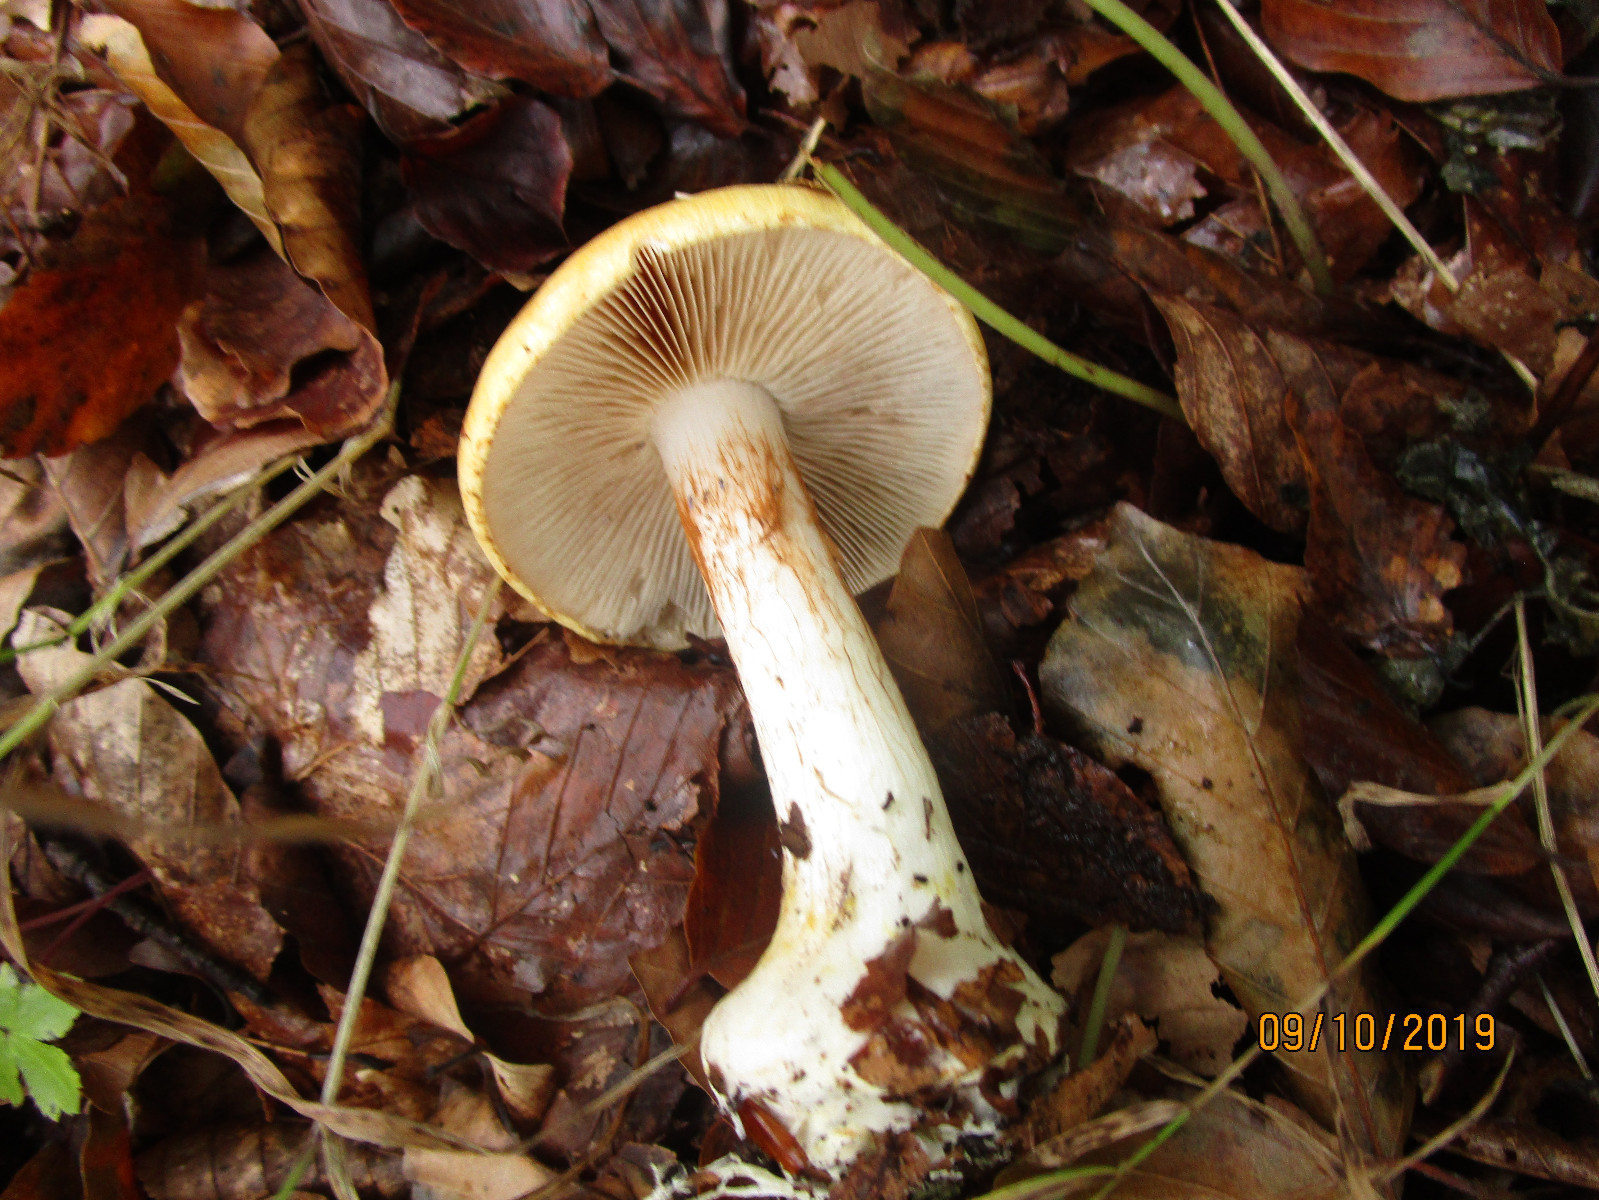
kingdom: Fungi
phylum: Basidiomycota
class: Agaricomycetes
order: Agaricales
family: Cortinariaceae
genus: Calonarius
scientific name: Calonarius humolens
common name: radise-slørhat
